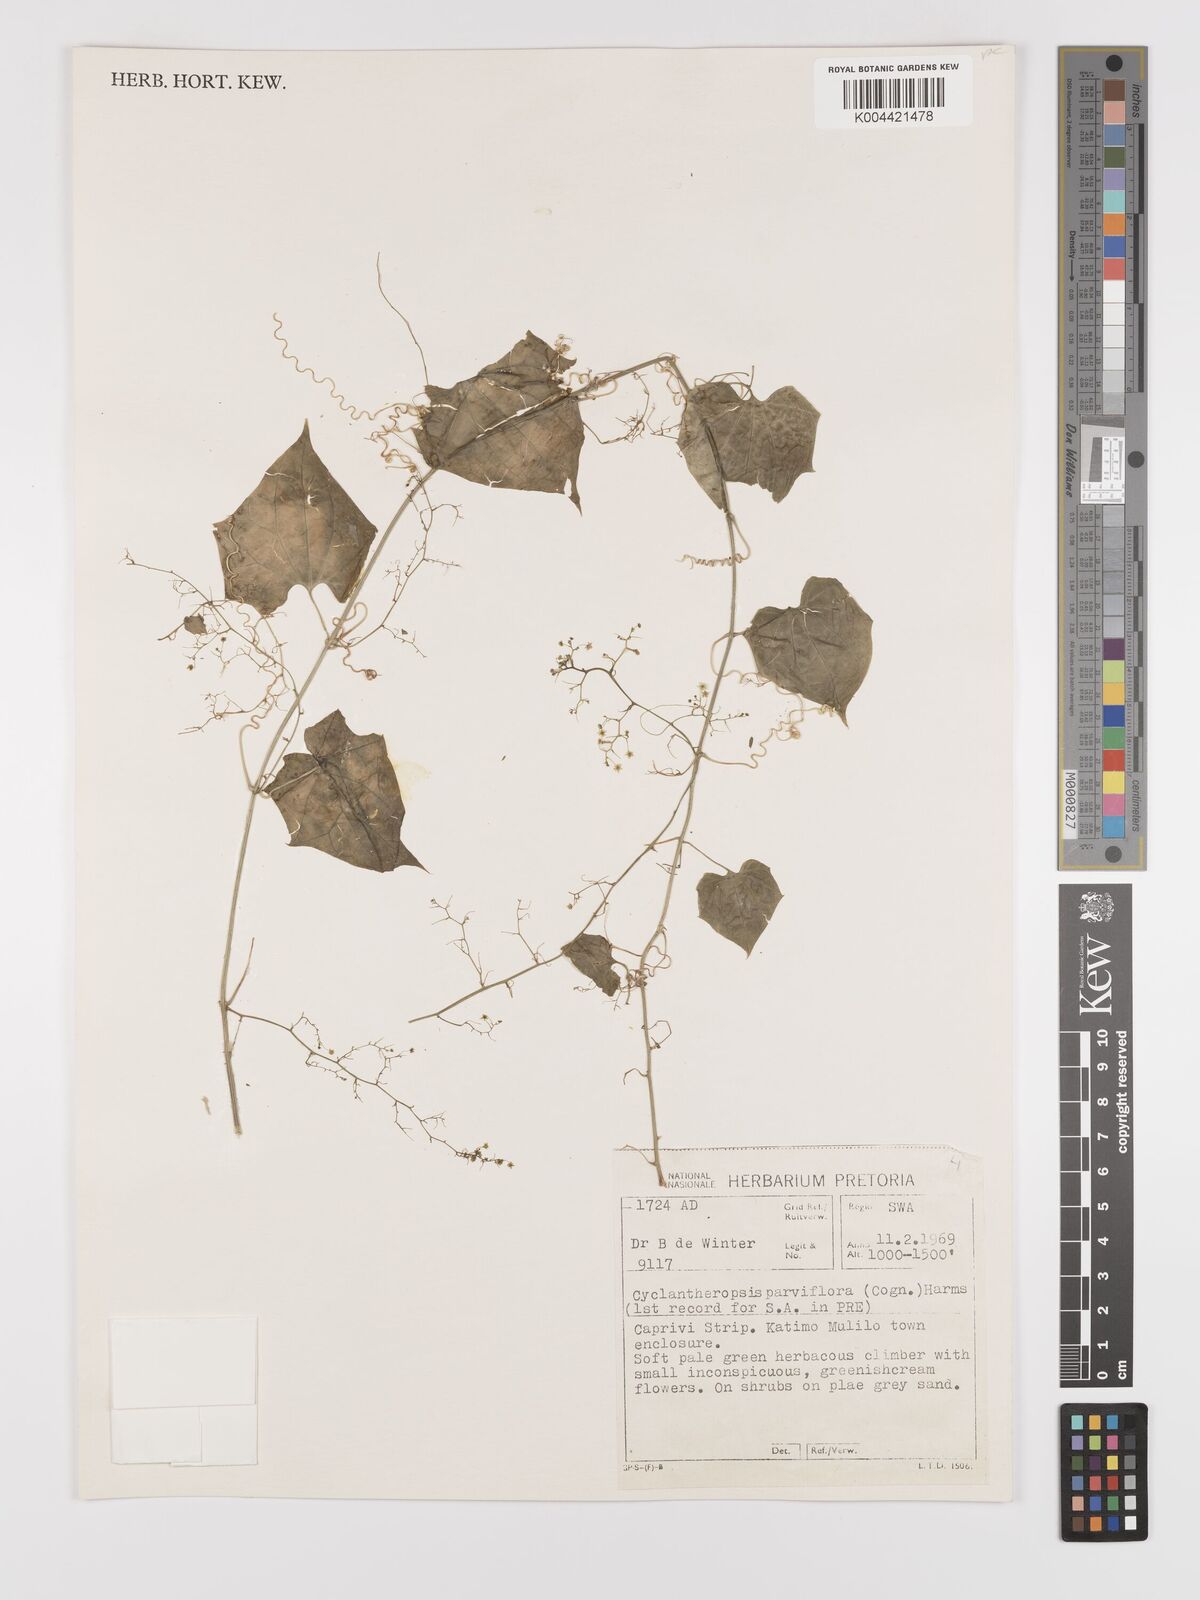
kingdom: Plantae
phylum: Tracheophyta
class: Magnoliopsida
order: Cucurbitales
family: Cucurbitaceae
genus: Cyclantheropsis
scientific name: Cyclantheropsis parviflora
